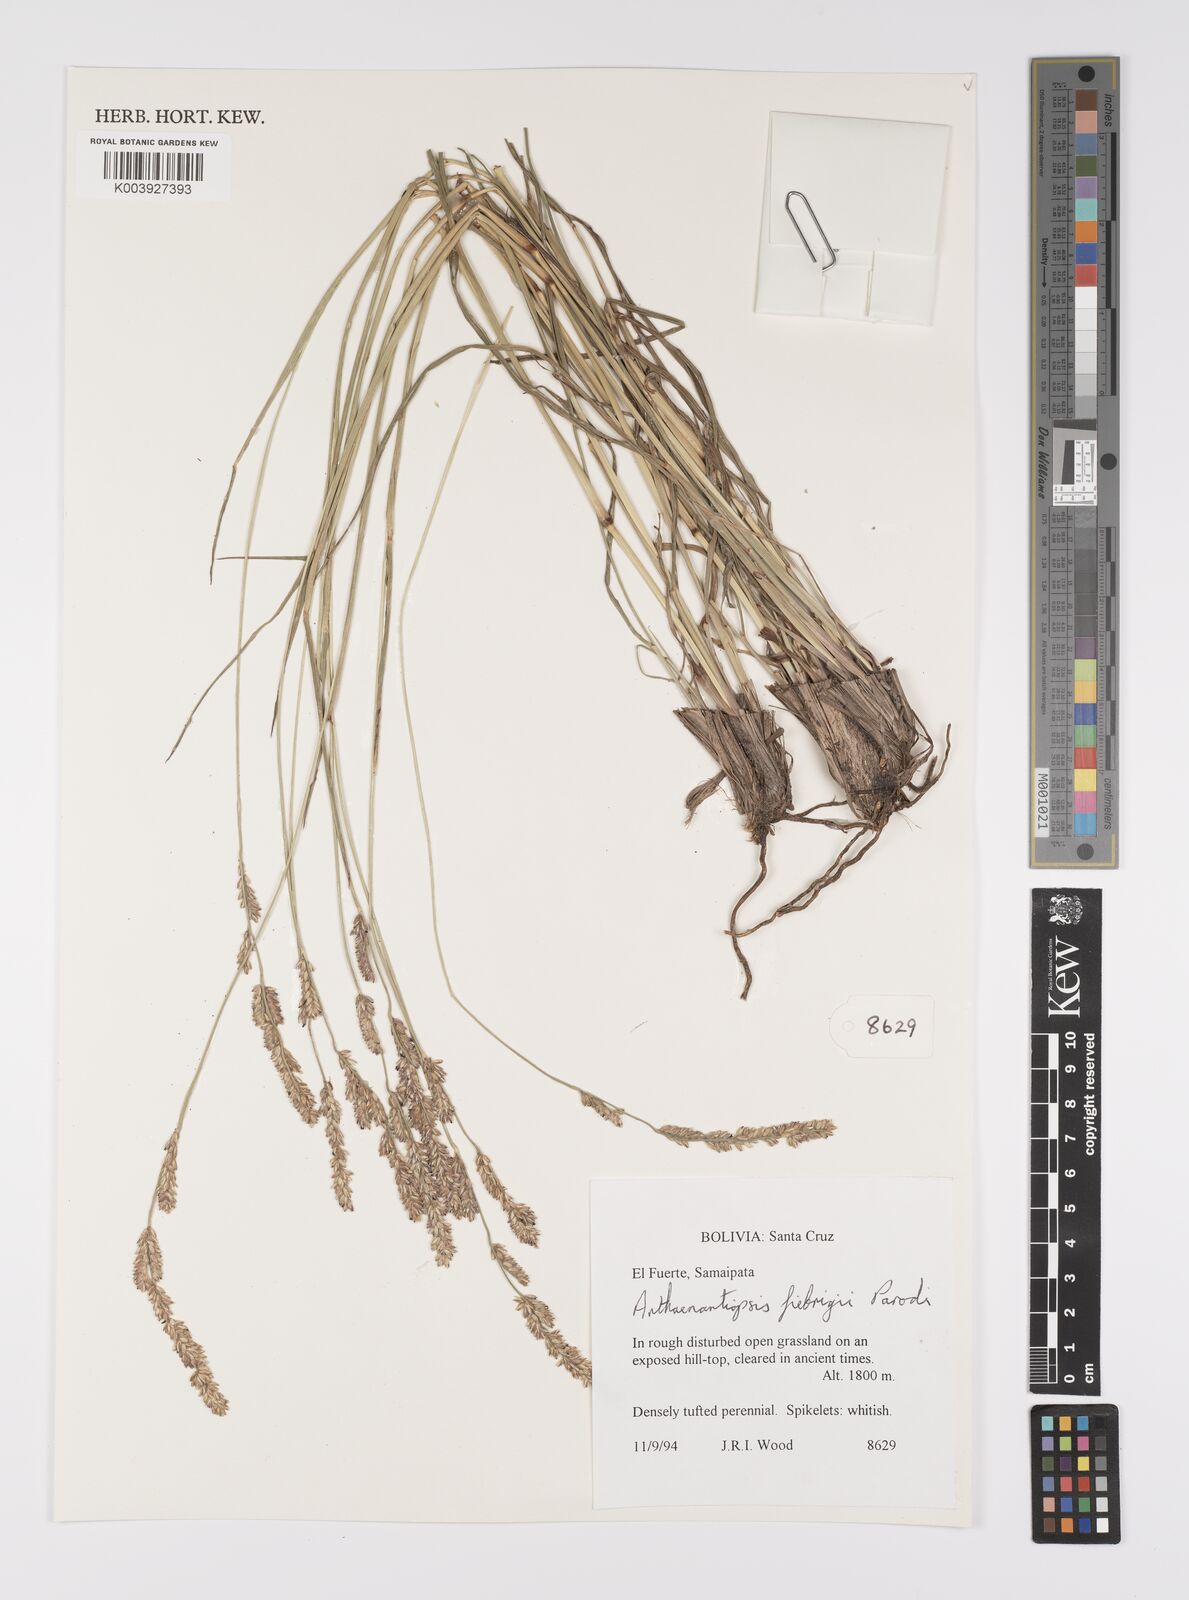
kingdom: Plantae
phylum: Tracheophyta
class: Liliopsida
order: Poales
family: Poaceae
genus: Anthaenantiopsis
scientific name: Anthaenantiopsis fiebrigii
